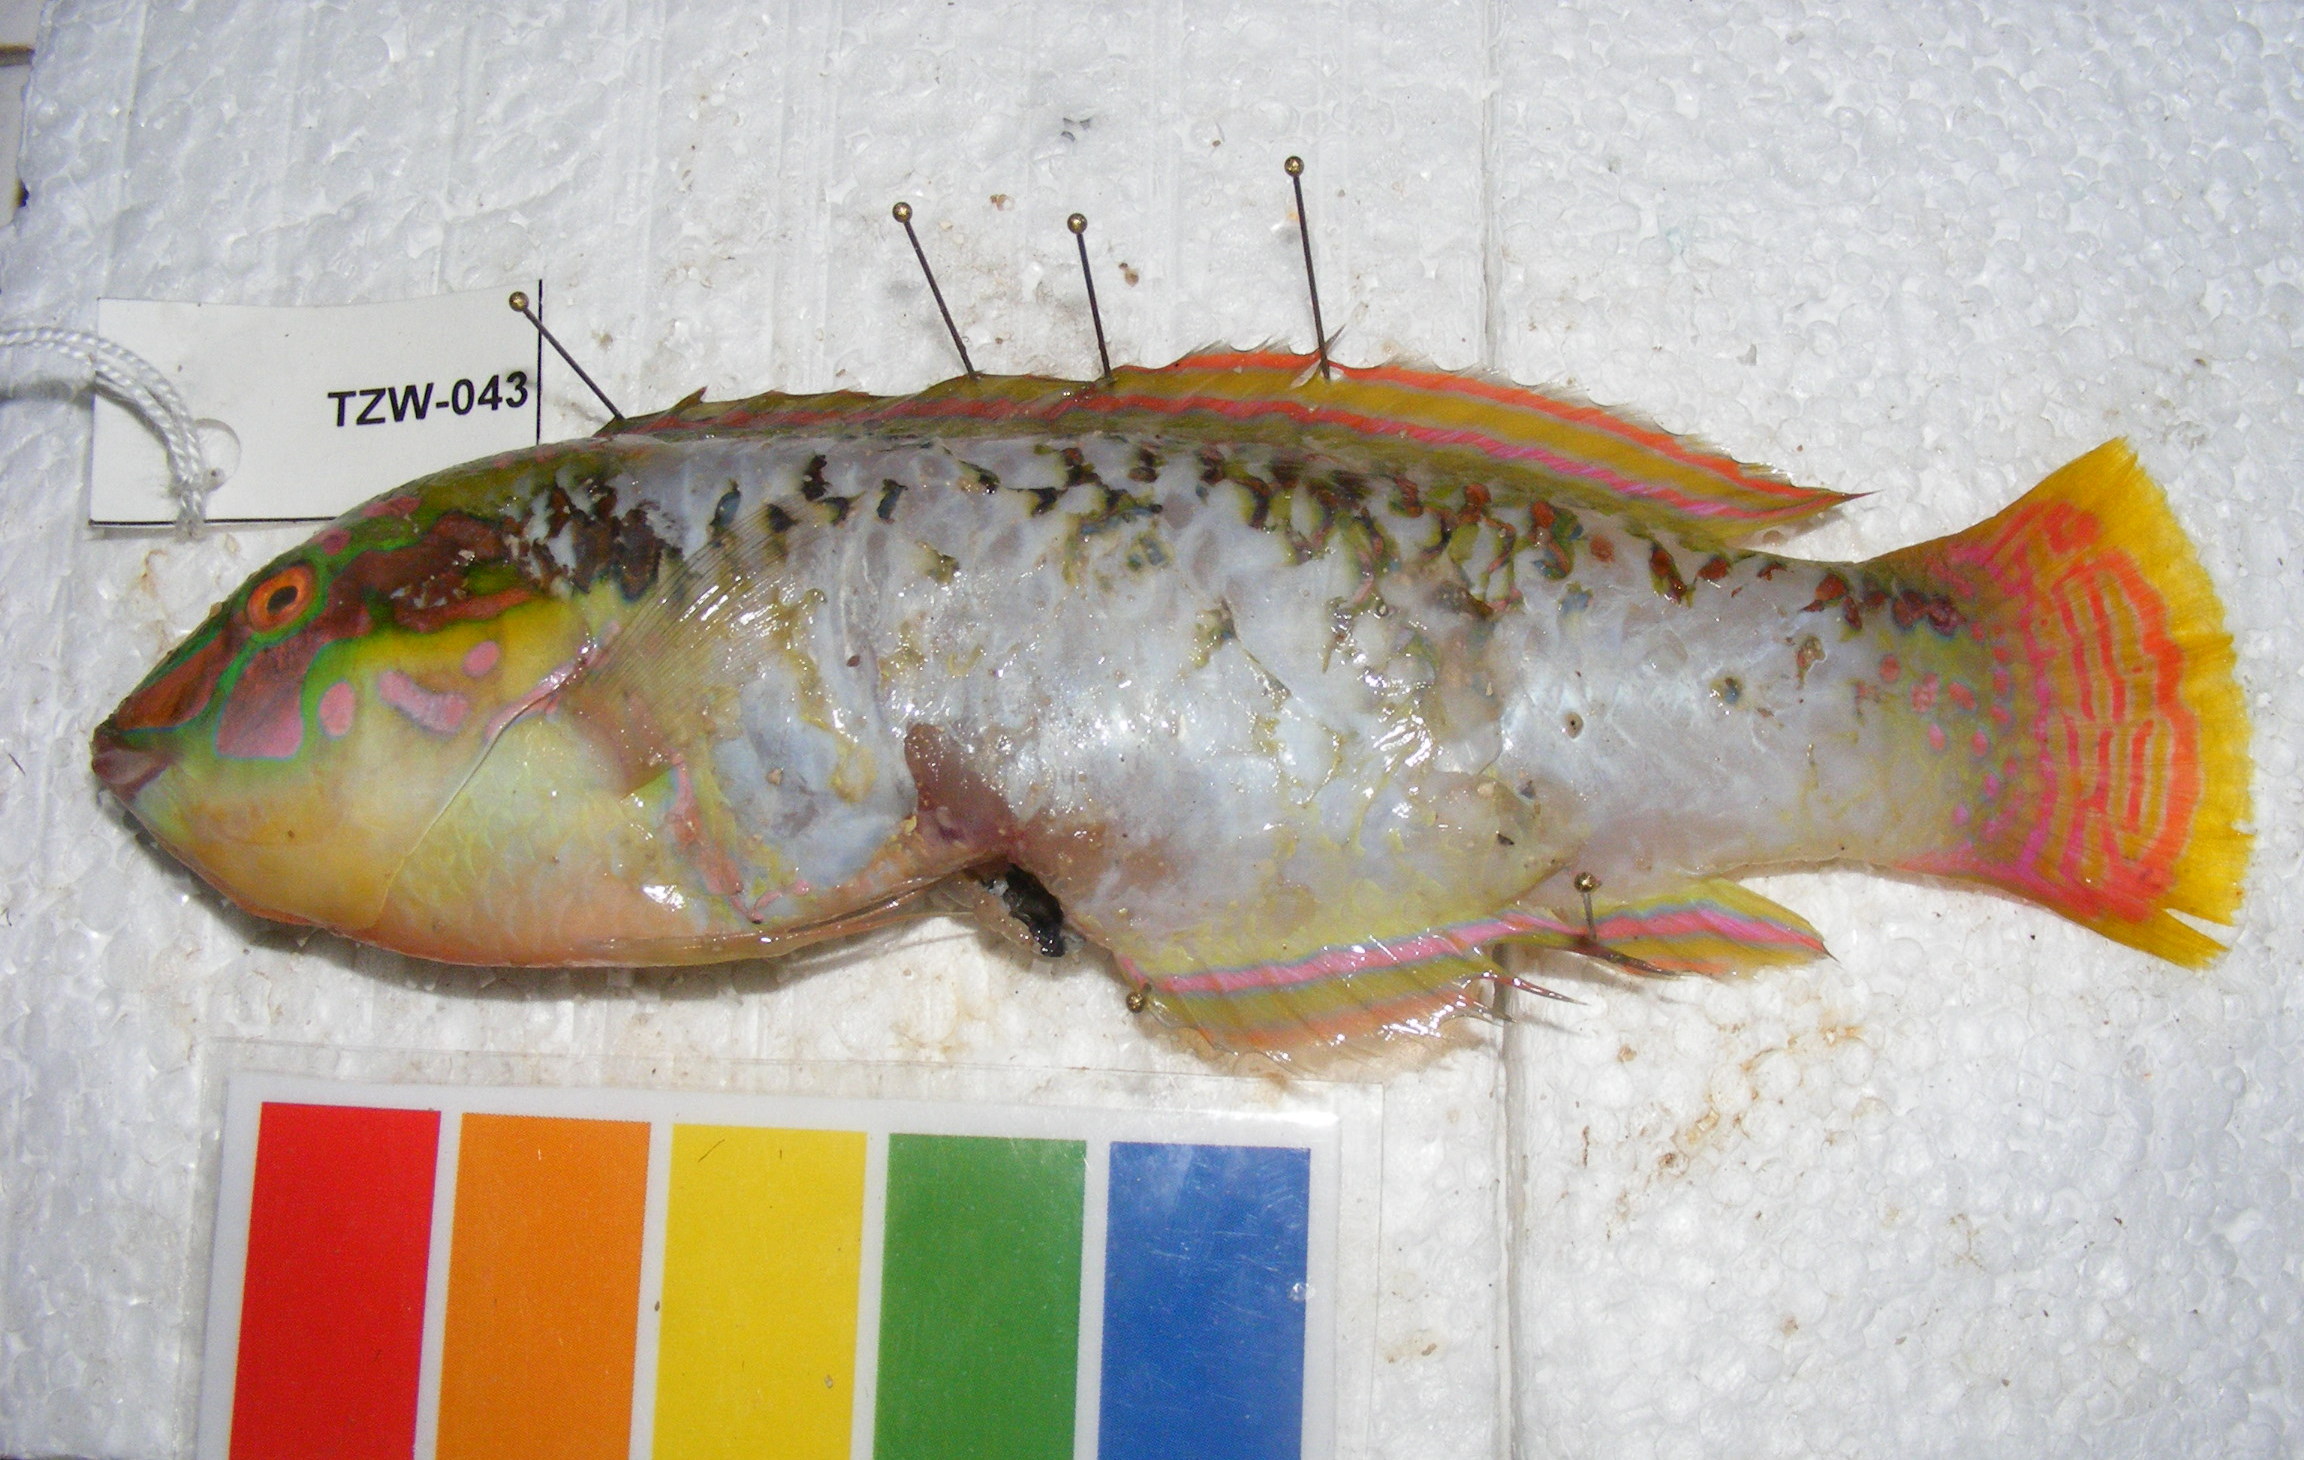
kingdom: Animalia
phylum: Chordata
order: Perciformes
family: Labridae
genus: Halichoeres
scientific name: Halichoeres scapularis
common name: Brownbanded wrasse
